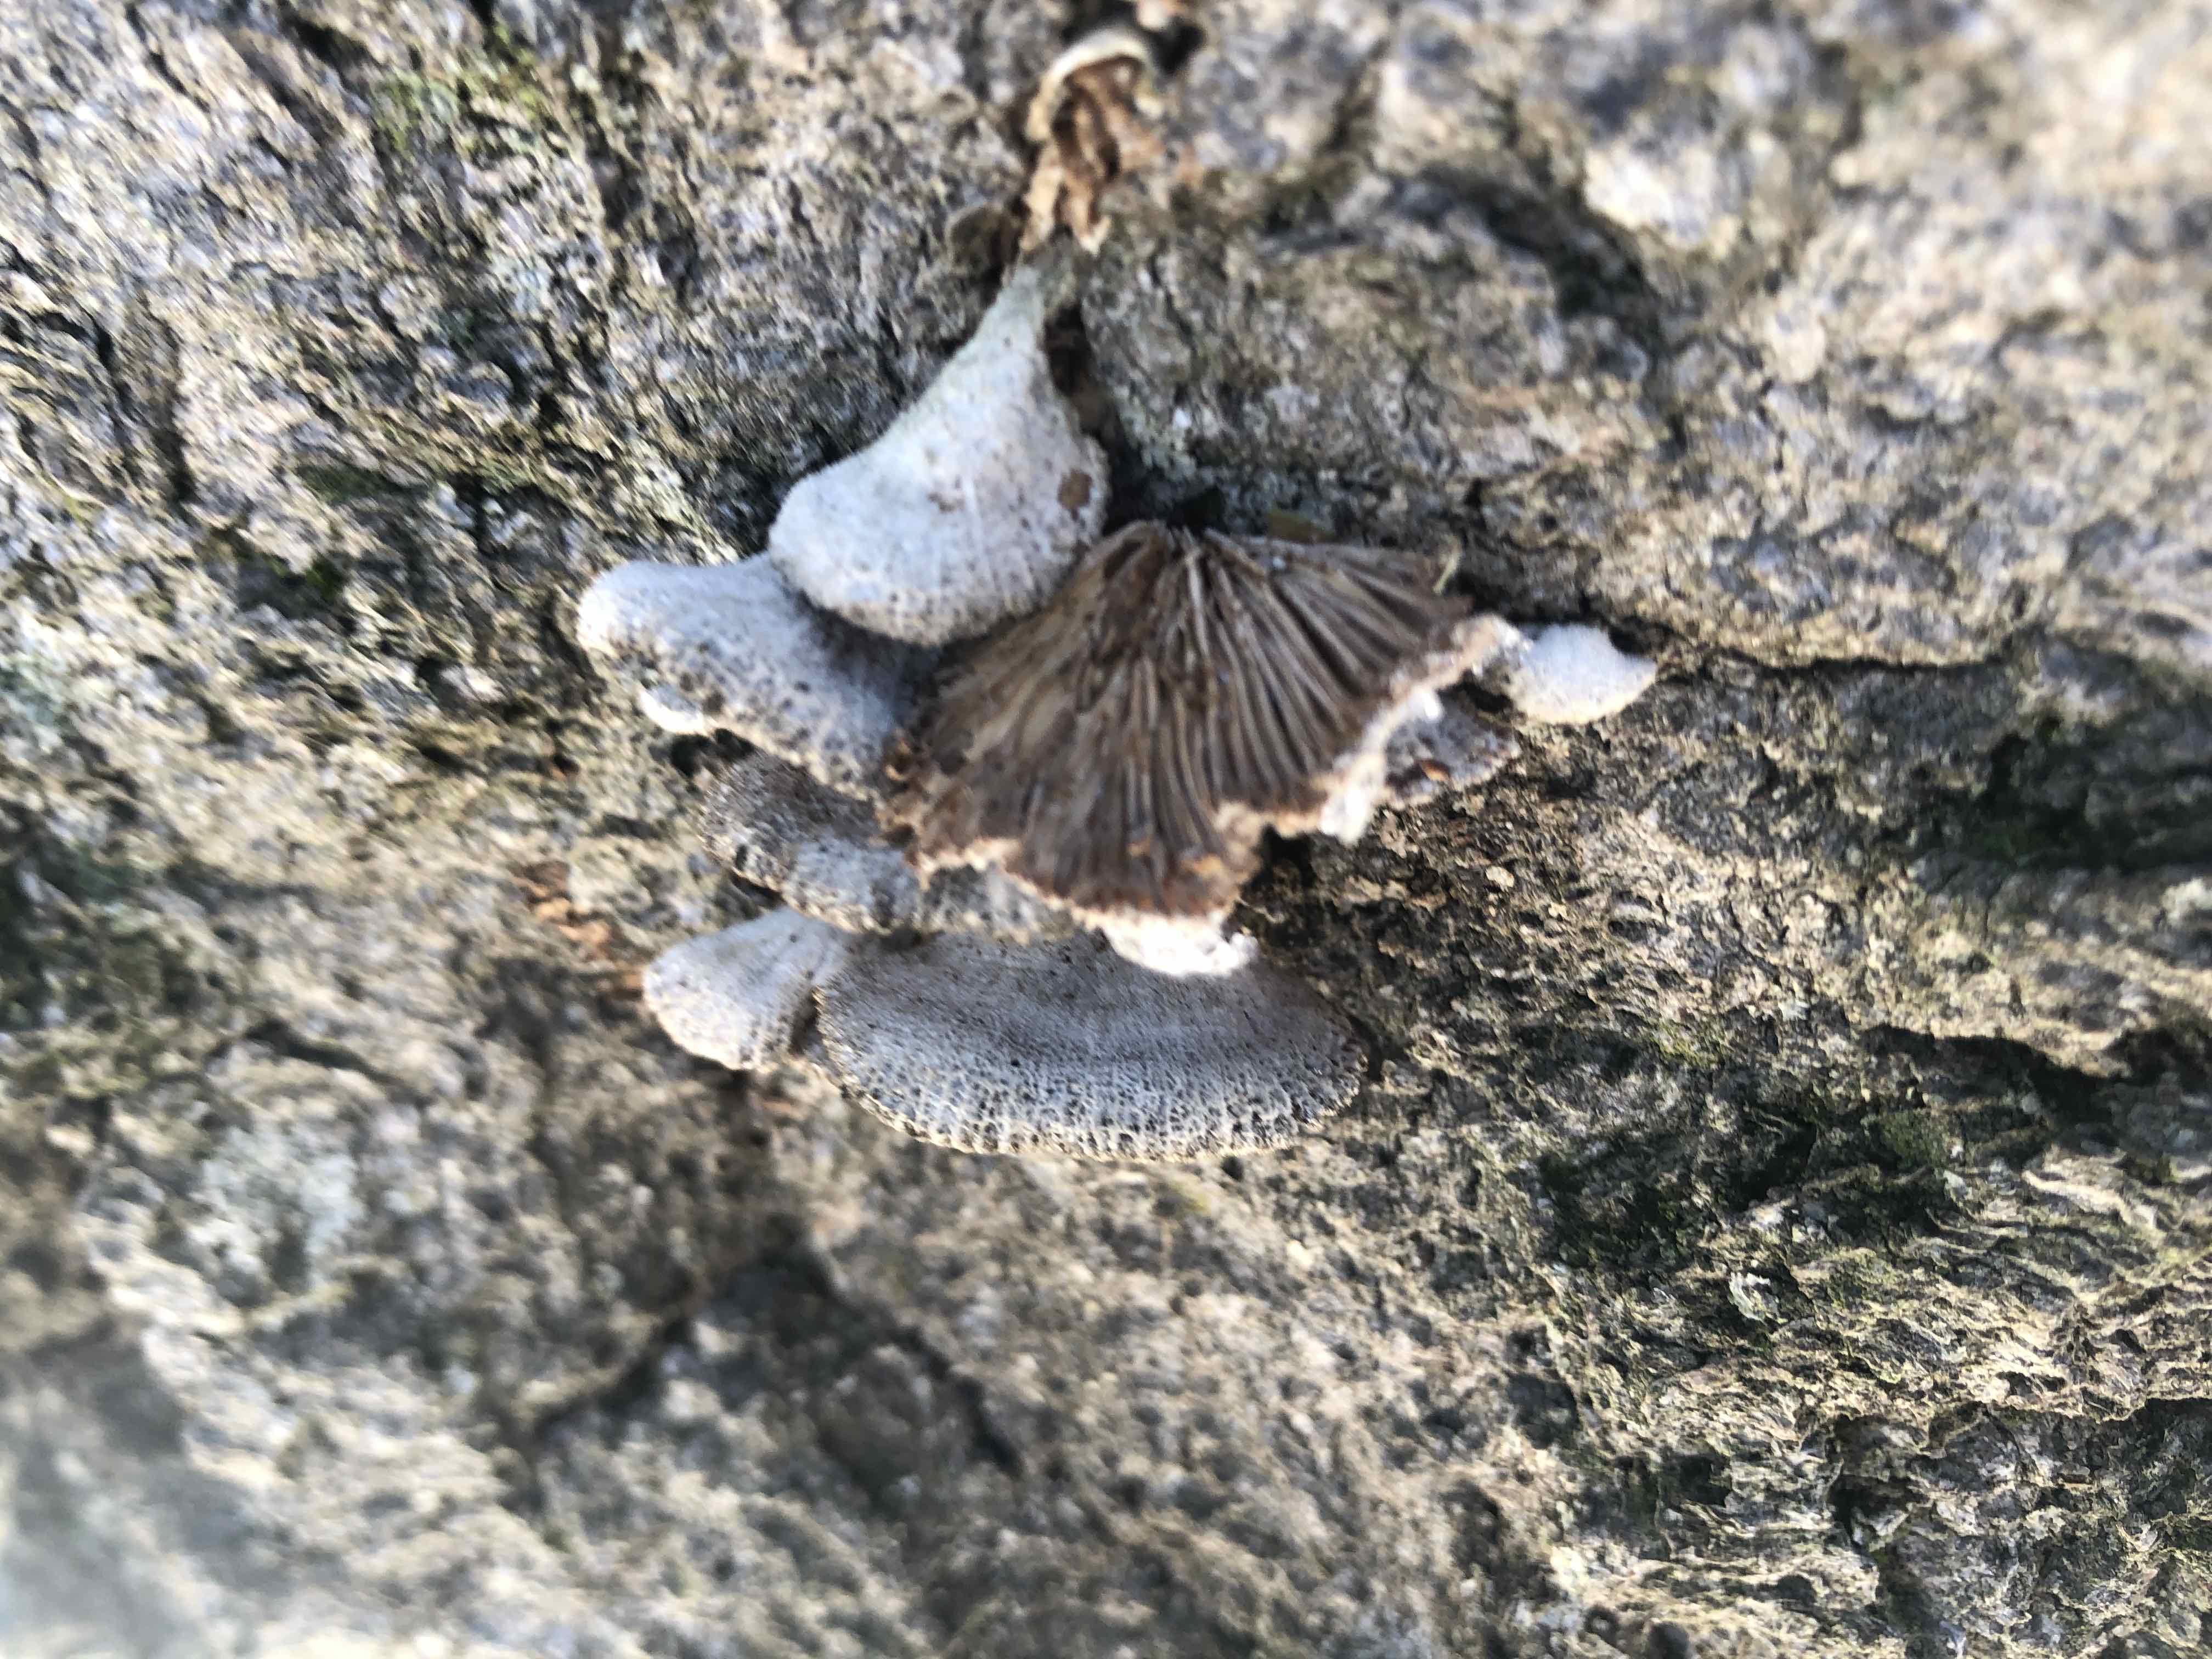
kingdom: Fungi
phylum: Basidiomycota
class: Agaricomycetes
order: Agaricales
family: Schizophyllaceae
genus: Schizophyllum
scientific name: Schizophyllum commune
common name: kløvblad
